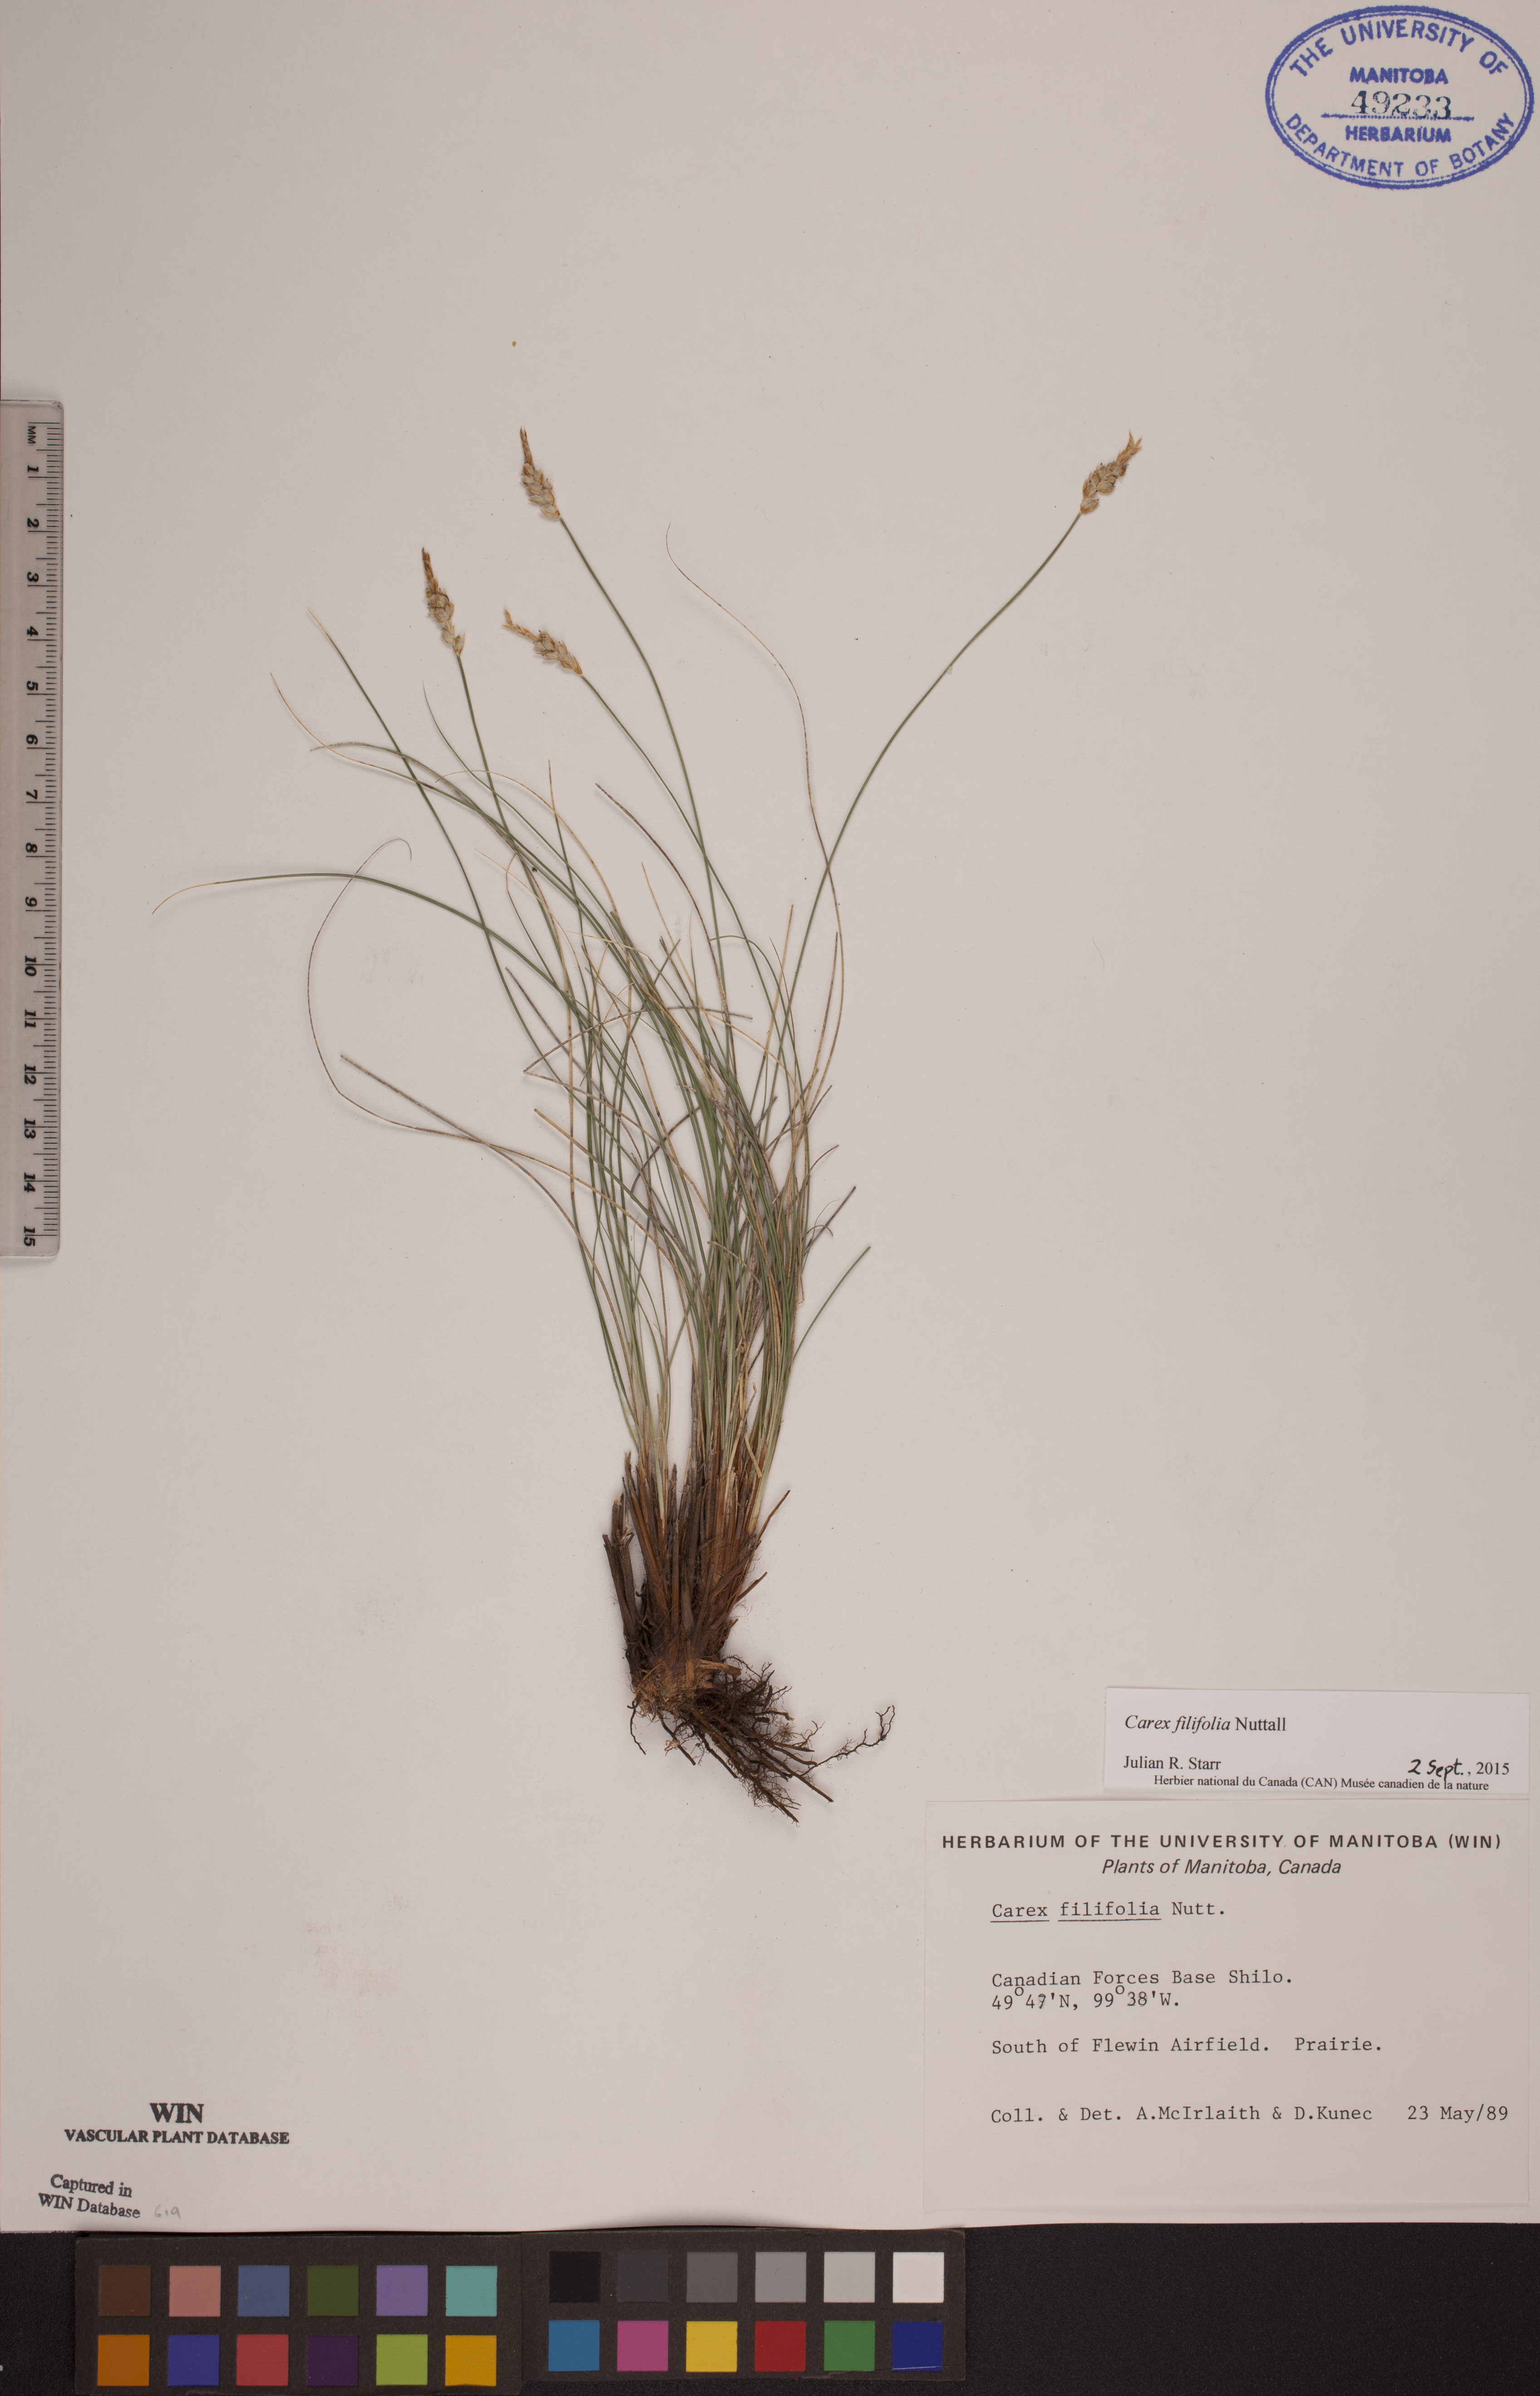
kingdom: Plantae
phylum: Tracheophyta
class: Liliopsida
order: Poales
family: Cyperaceae
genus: Carex
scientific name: Carex filifolia
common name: Threadleaf sedge
